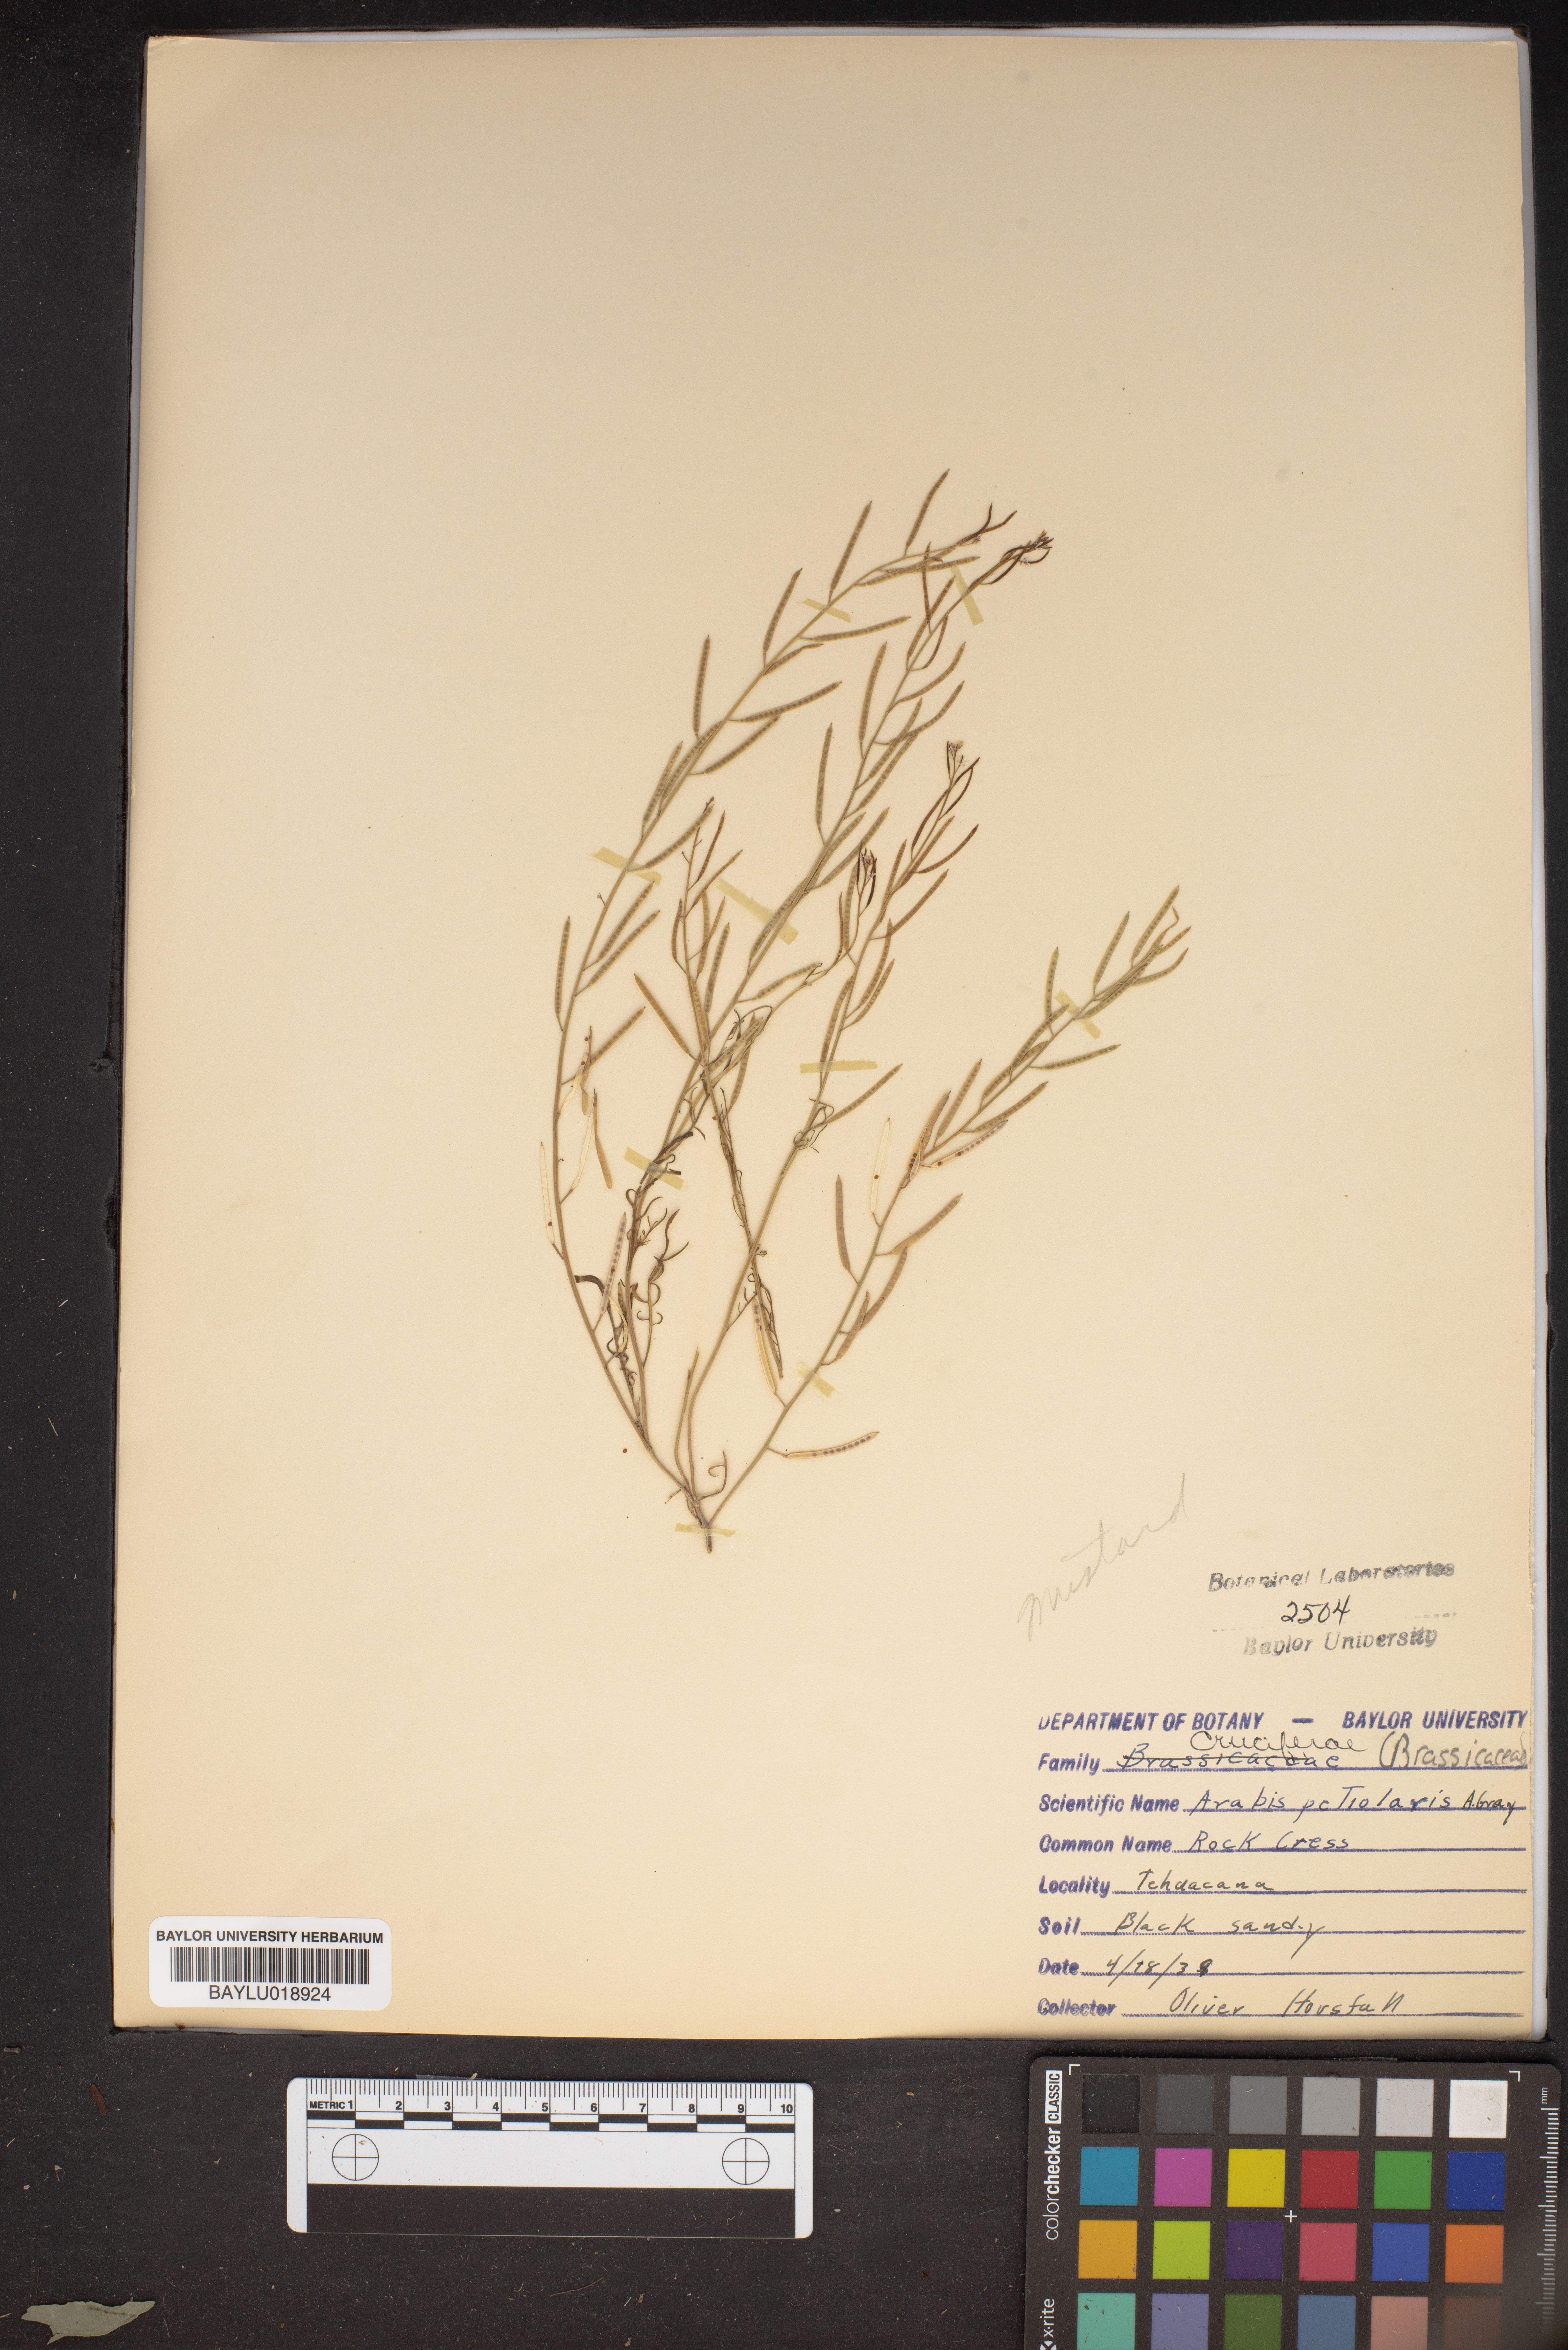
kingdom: Plantae
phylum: Tracheophyta
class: Magnoliopsida
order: Brassicales
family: Brassicaceae
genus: Streptanthus
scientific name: Streptanthus petiolaris
